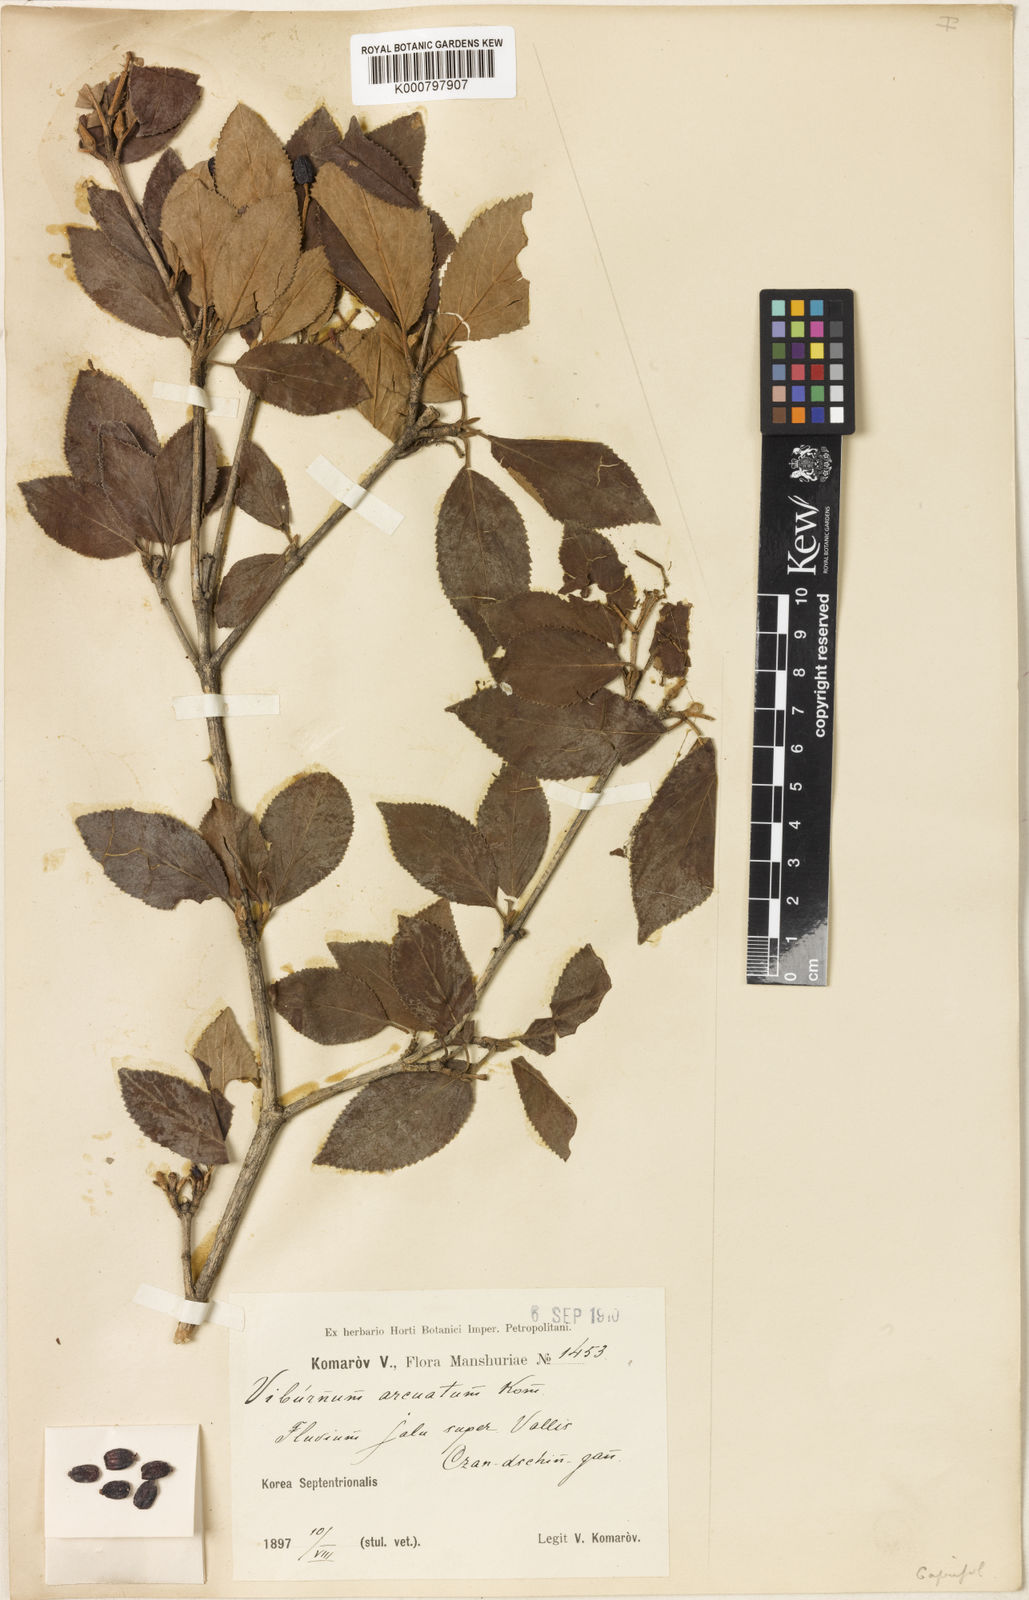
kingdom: Plantae
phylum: Tracheophyta
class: Magnoliopsida
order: Dipsacales
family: Viburnaceae
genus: Viburnum
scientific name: Viburnum burejaeticum
